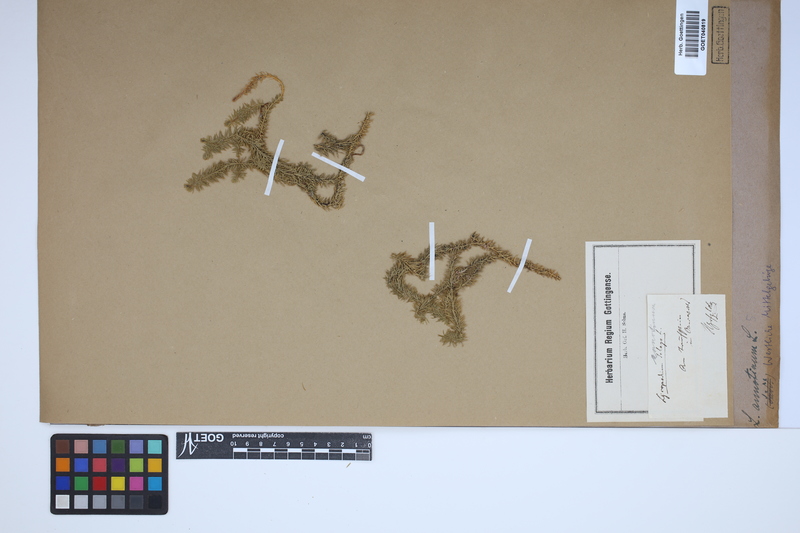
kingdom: Plantae
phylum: Tracheophyta
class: Lycopodiopsida
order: Lycopodiales
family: Lycopodiaceae
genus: Spinulum
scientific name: Spinulum annotinum
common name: Interrupted club-moss
